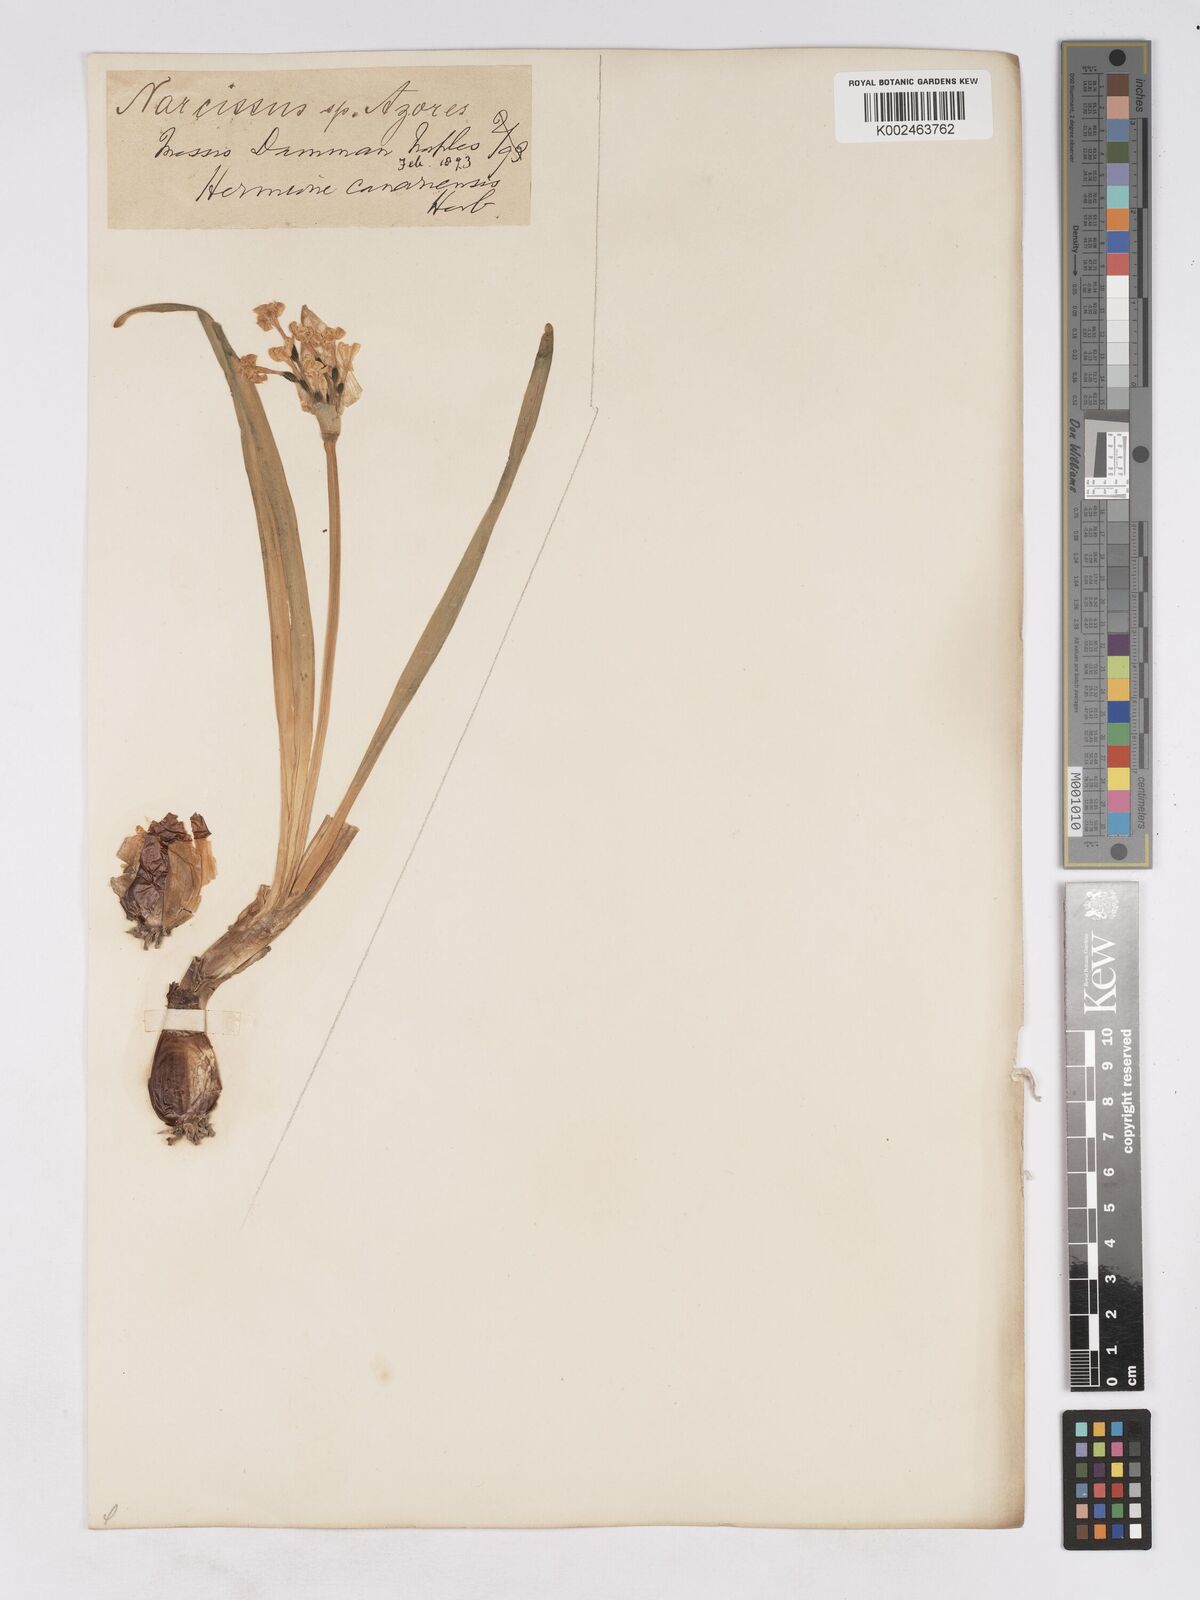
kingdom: Plantae
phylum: Tracheophyta
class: Liliopsida
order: Asparagales
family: Amaryllidaceae
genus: Narcissus
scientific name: Narcissus
